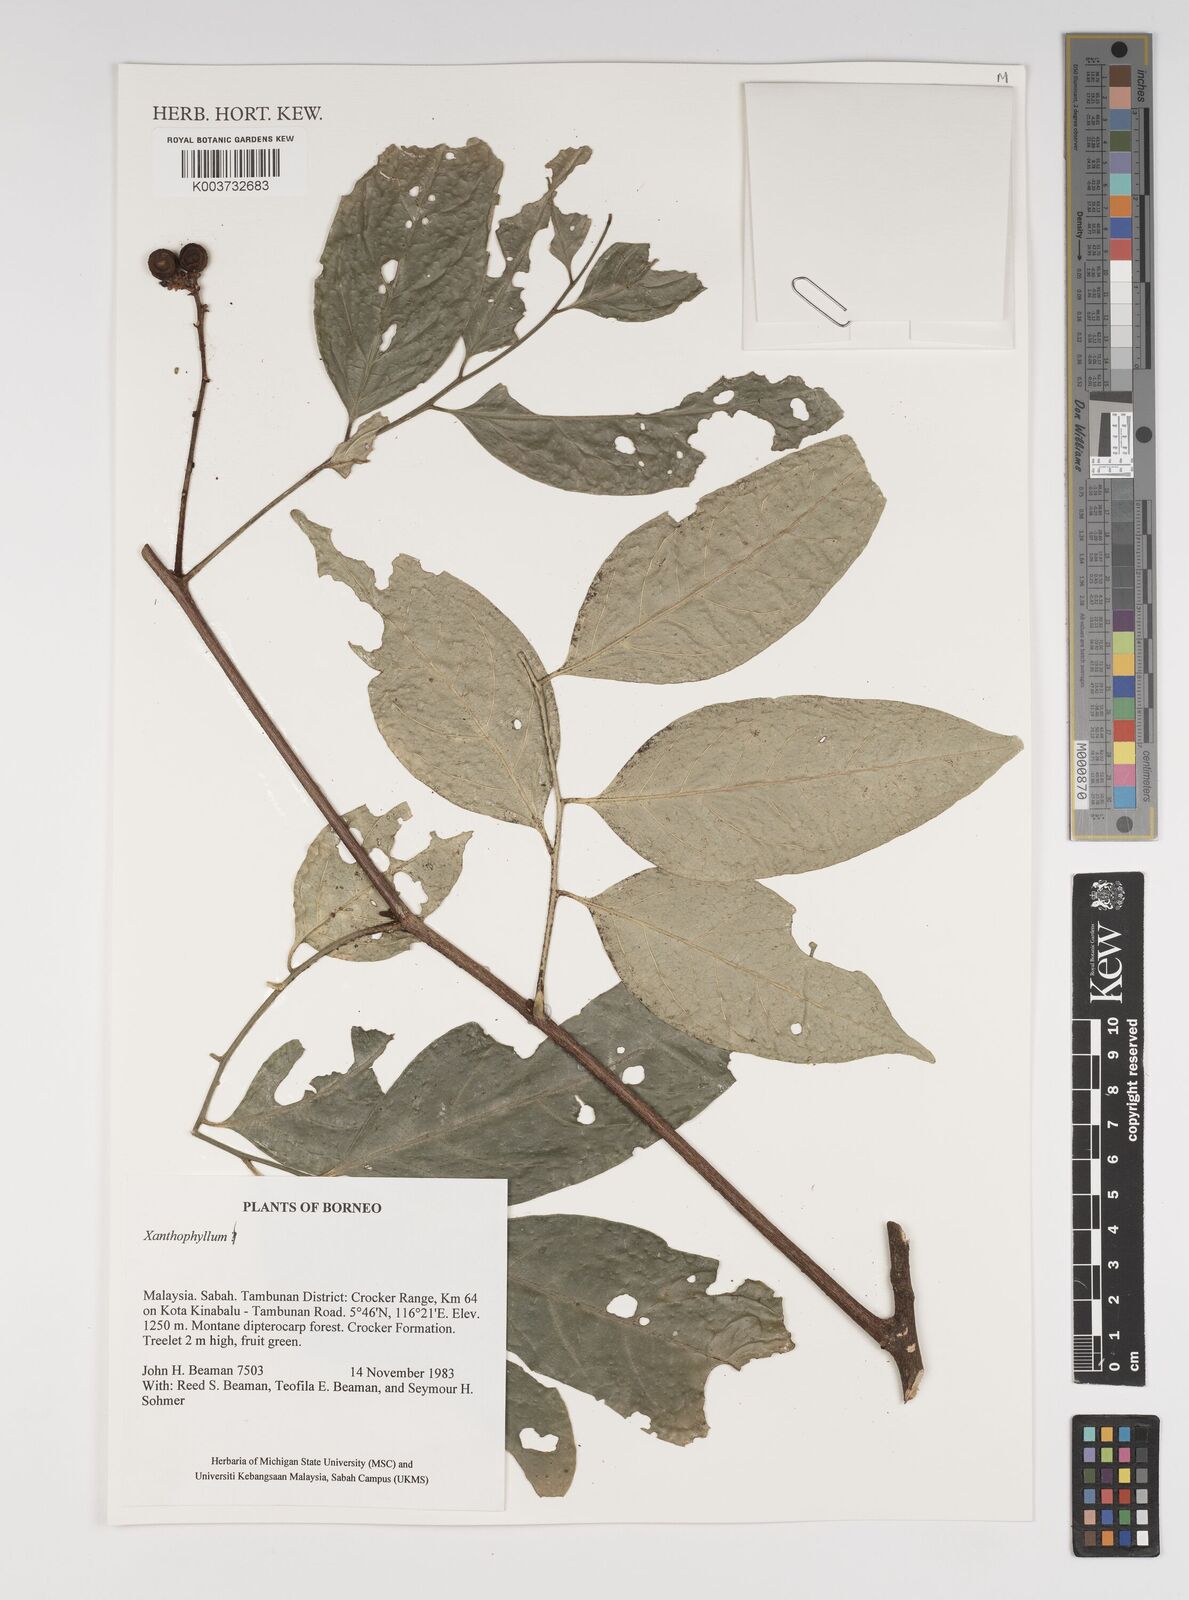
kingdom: Plantae
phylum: Tracheophyta
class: Magnoliopsida
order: Fabales
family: Polygalaceae
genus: Xanthophyllum
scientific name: Xanthophyllum
